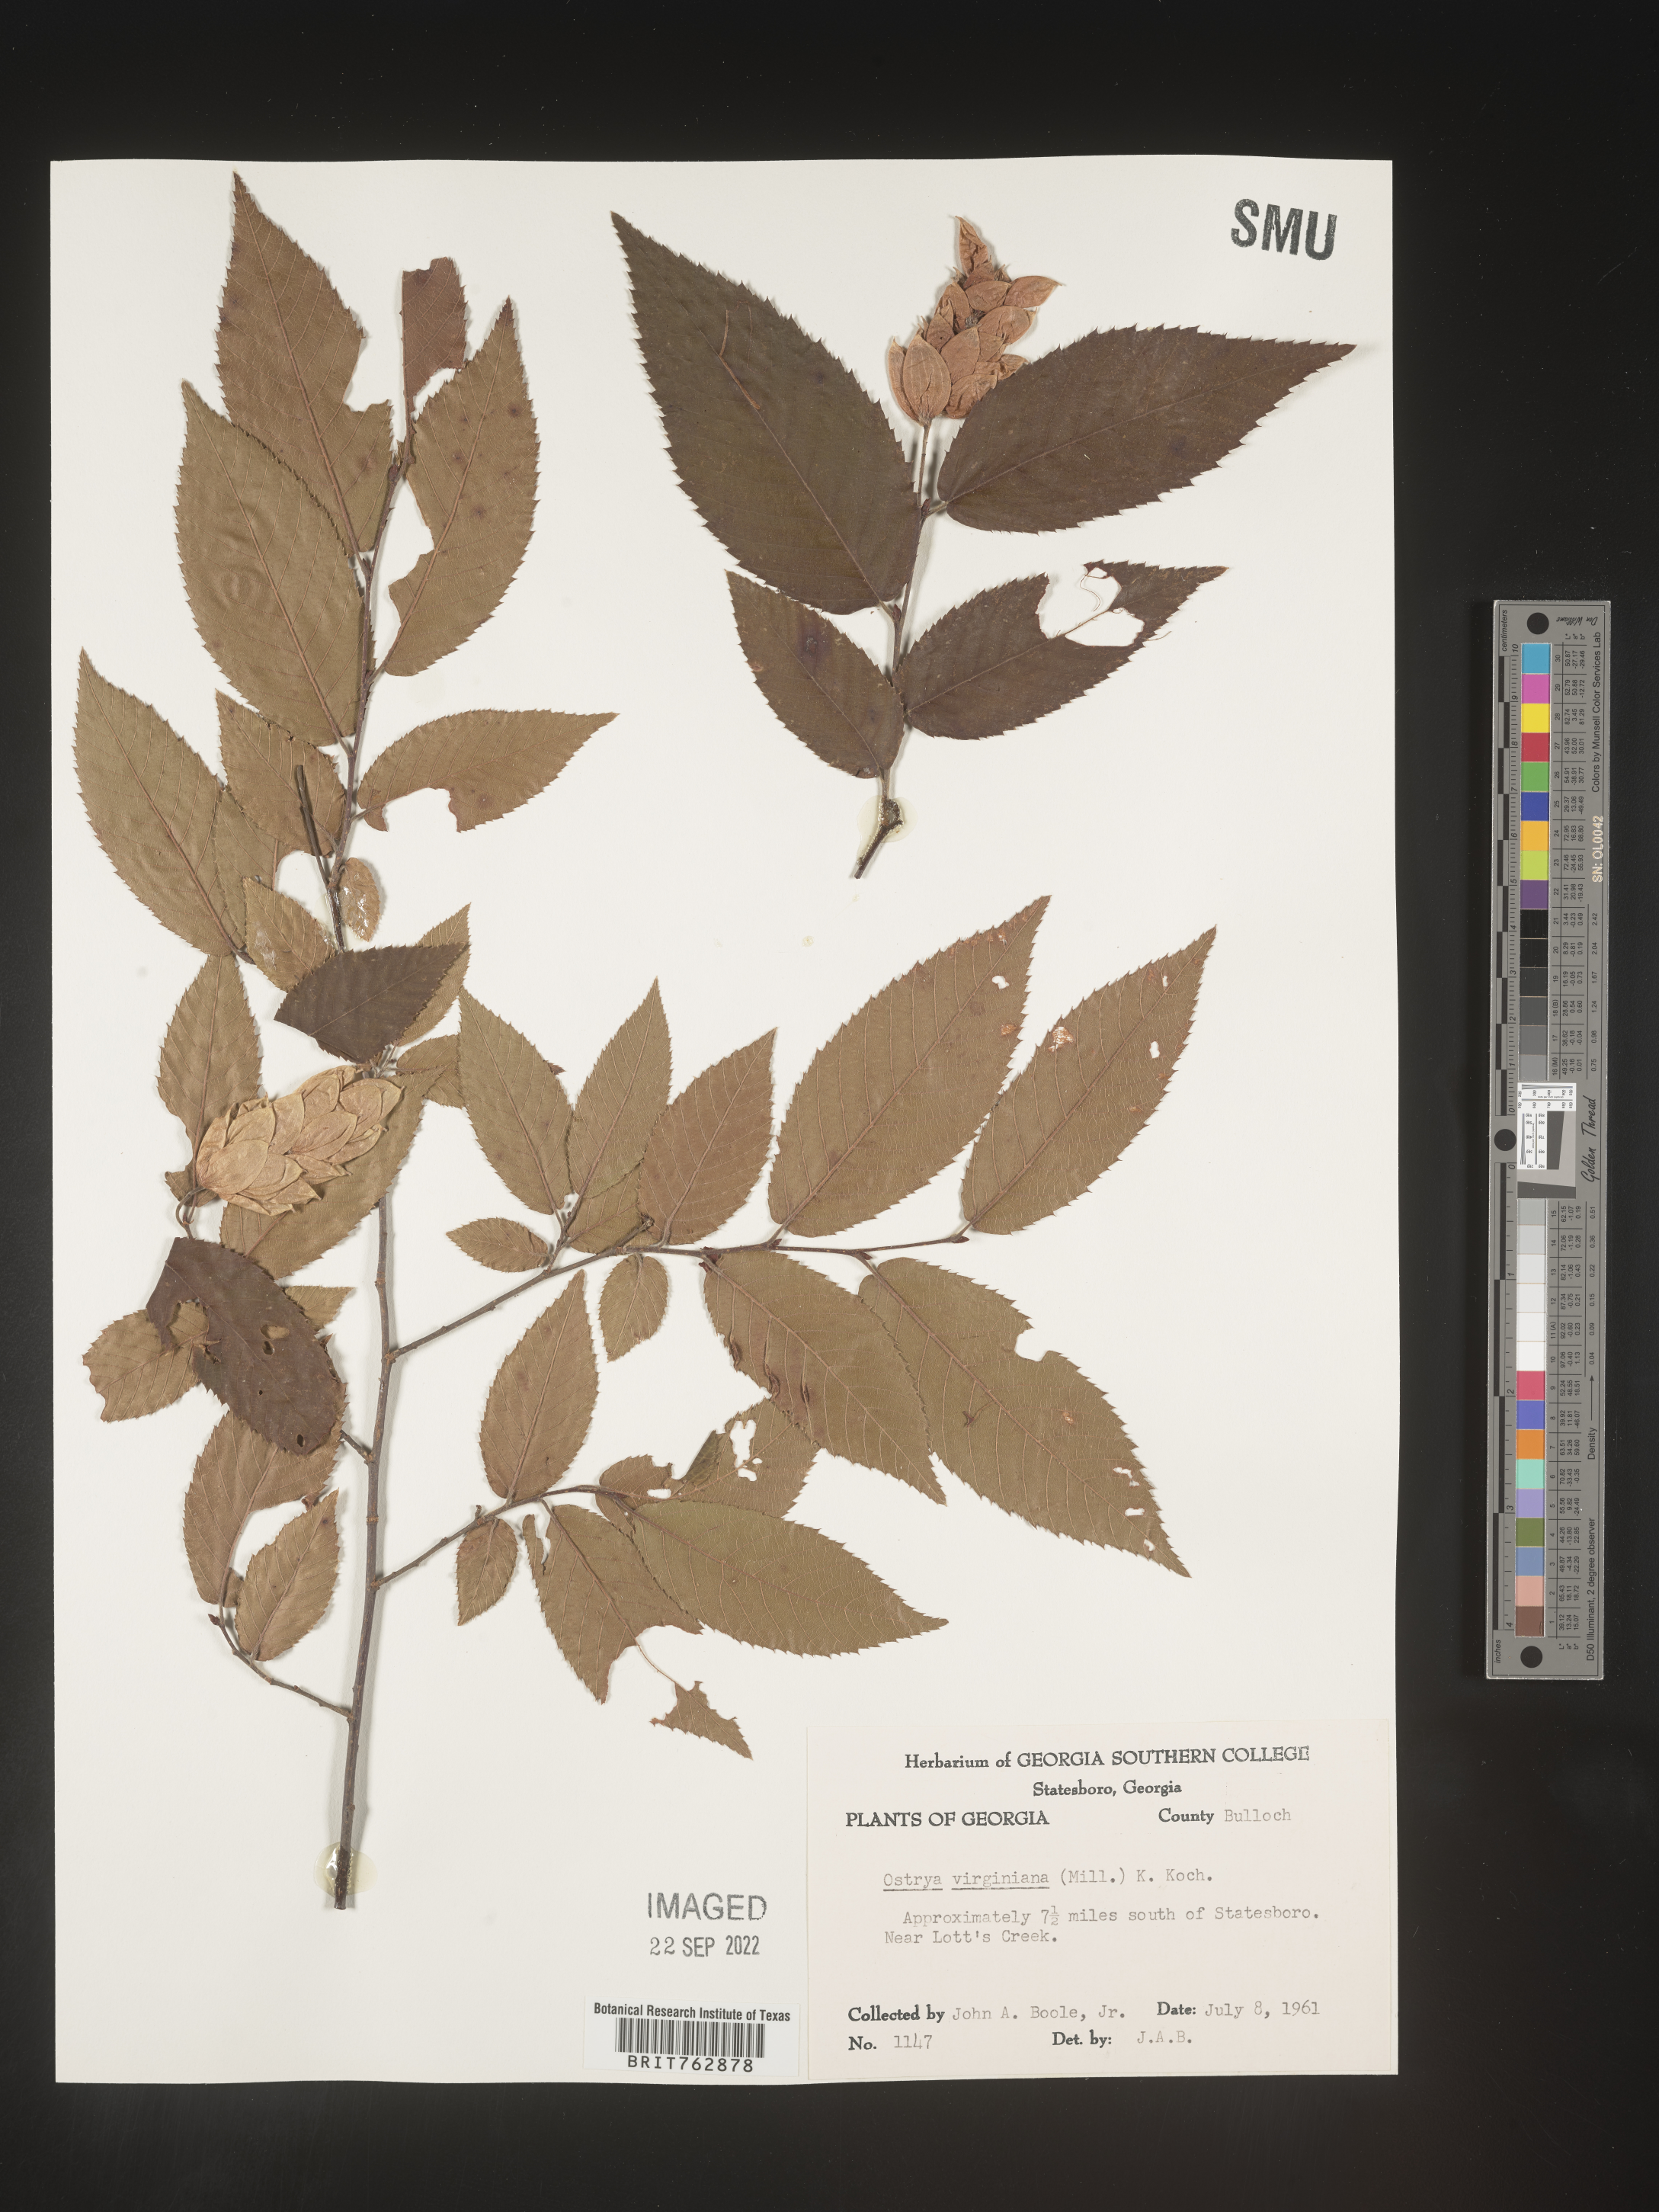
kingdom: Plantae
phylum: Tracheophyta
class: Magnoliopsida
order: Fagales
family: Betulaceae
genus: Ostrya
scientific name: Ostrya virginiana
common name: Ironwood
